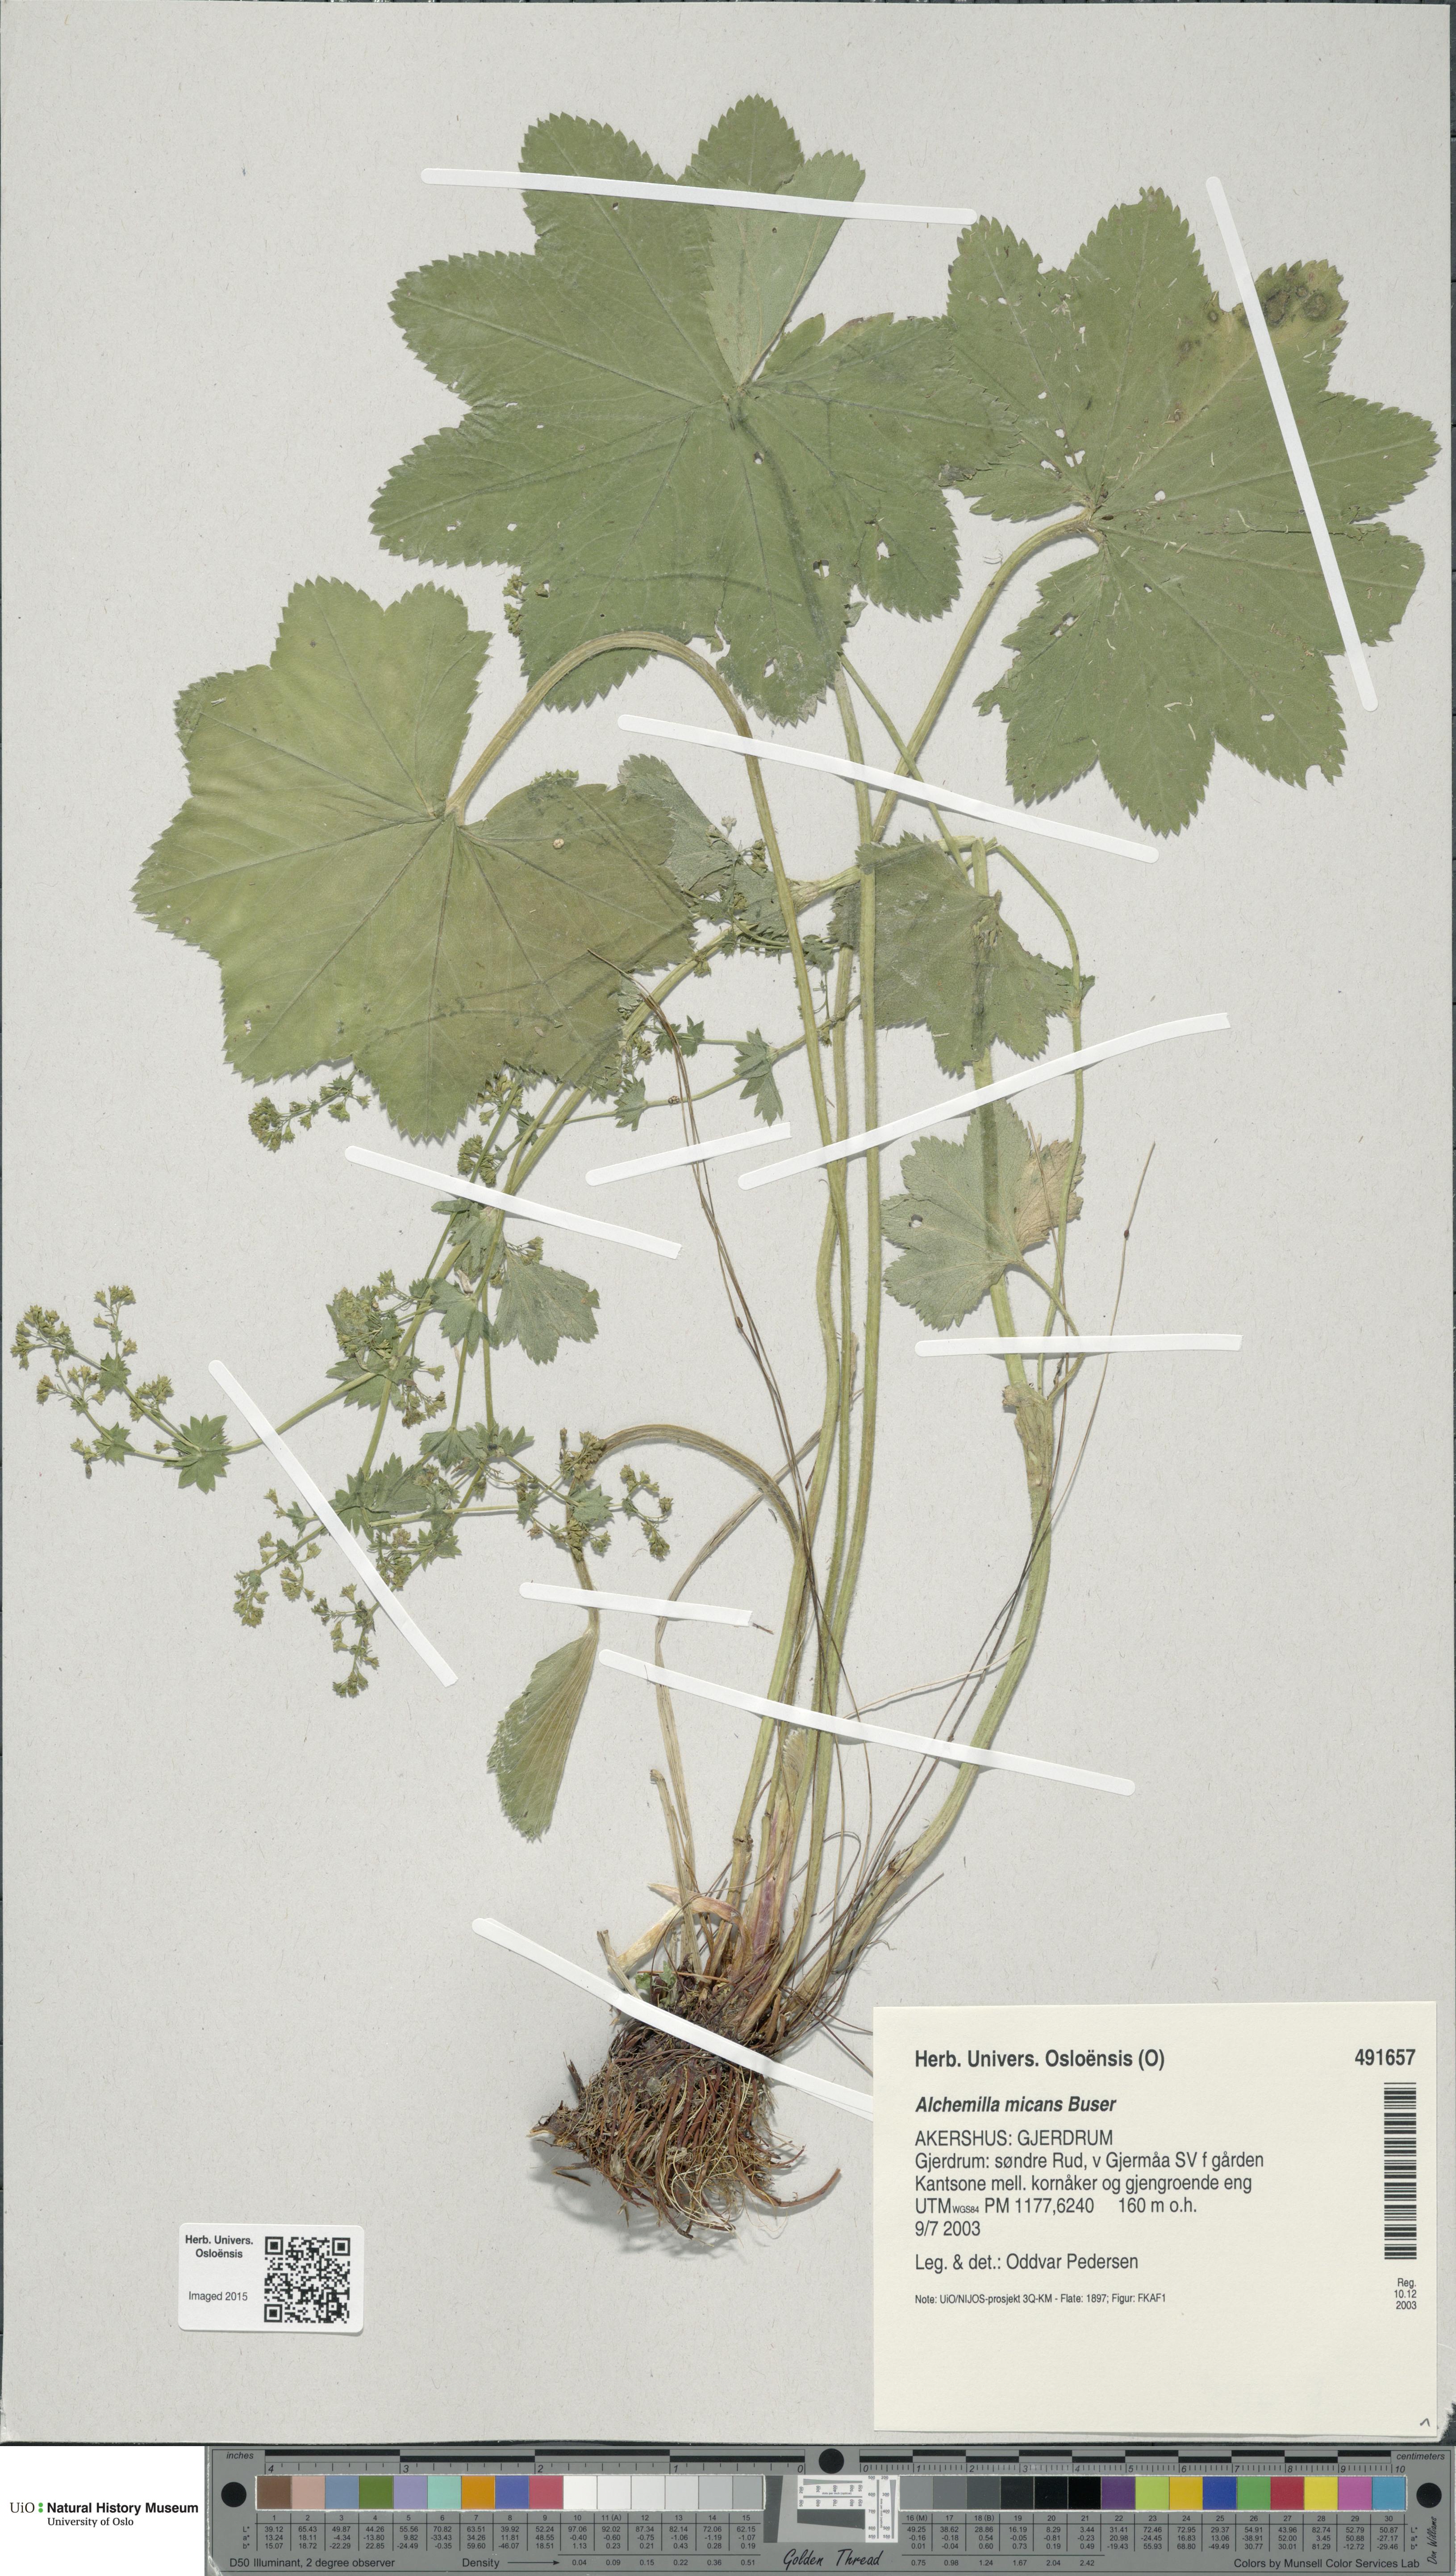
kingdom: Plantae
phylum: Tracheophyta
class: Magnoliopsida
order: Rosales
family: Rosaceae
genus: Alchemilla
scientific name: Alchemilla micans
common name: Gleaming lady's mantle
